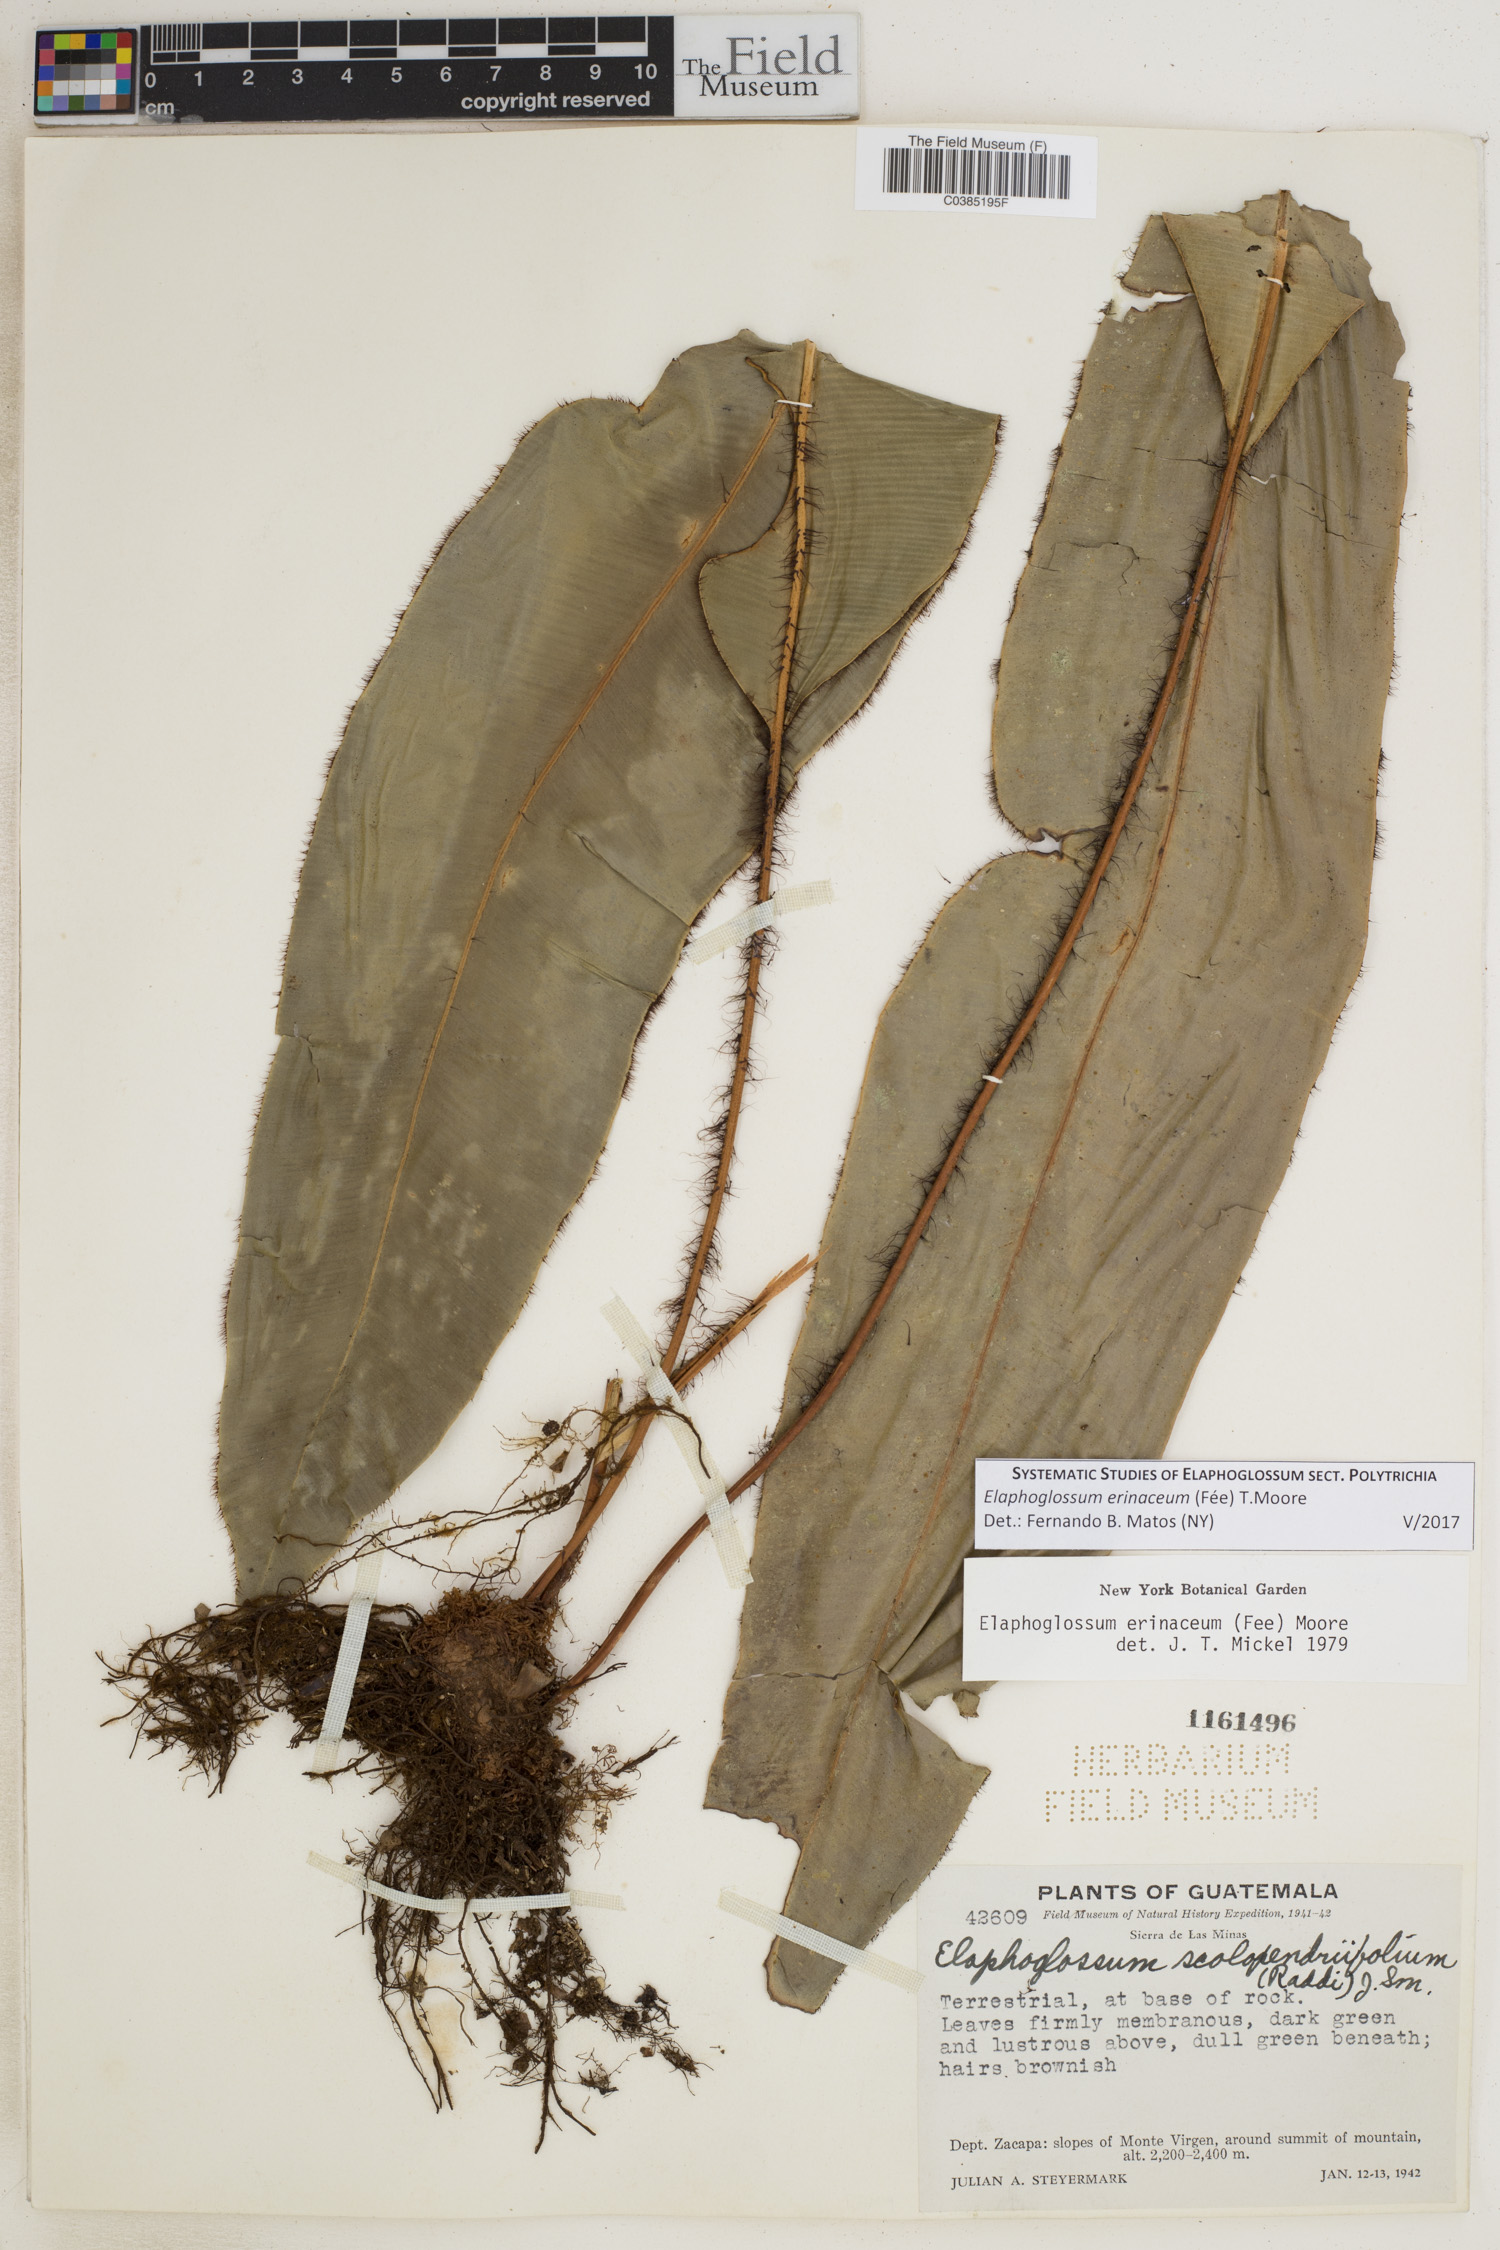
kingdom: Plantae
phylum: Tracheophyta
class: Polypodiopsida
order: Polypodiales
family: Dryopteridaceae
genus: Elaphoglossum
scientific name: Elaphoglossum erinaceum
